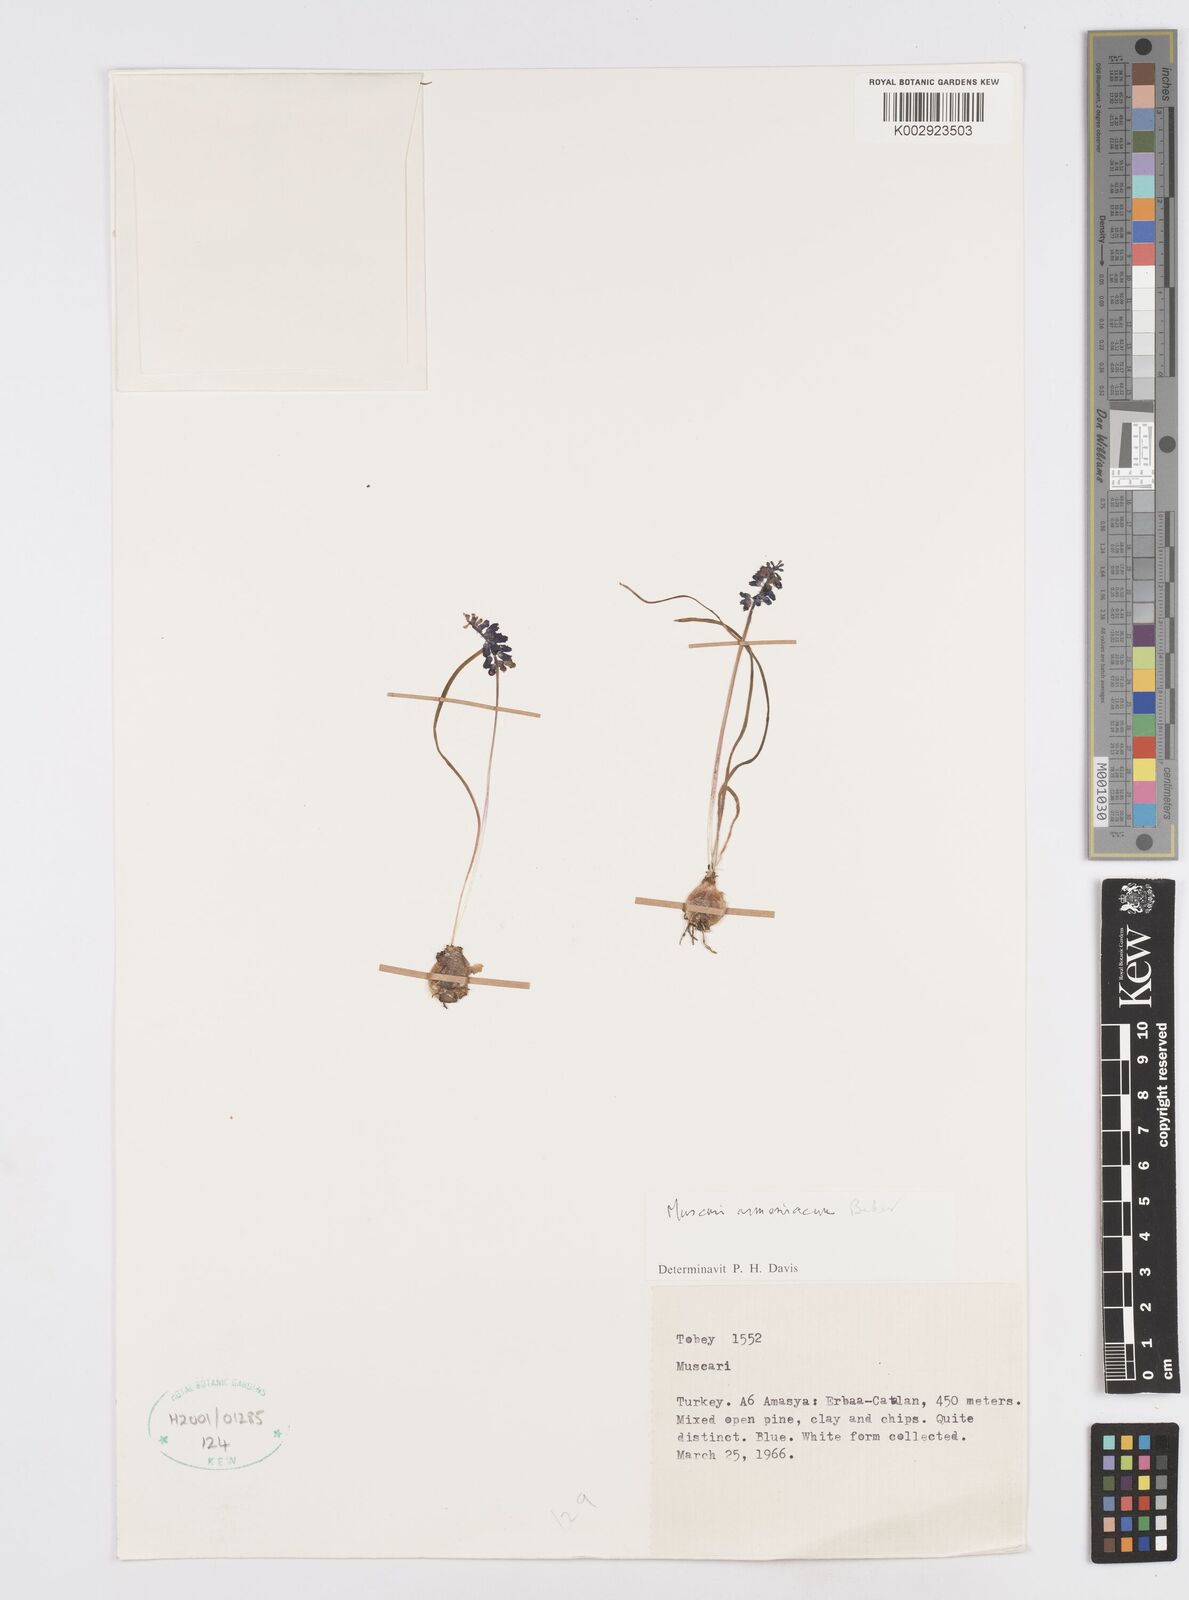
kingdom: Plantae
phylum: Tracheophyta
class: Liliopsida
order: Asparagales
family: Asparagaceae
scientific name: Asparagaceae
